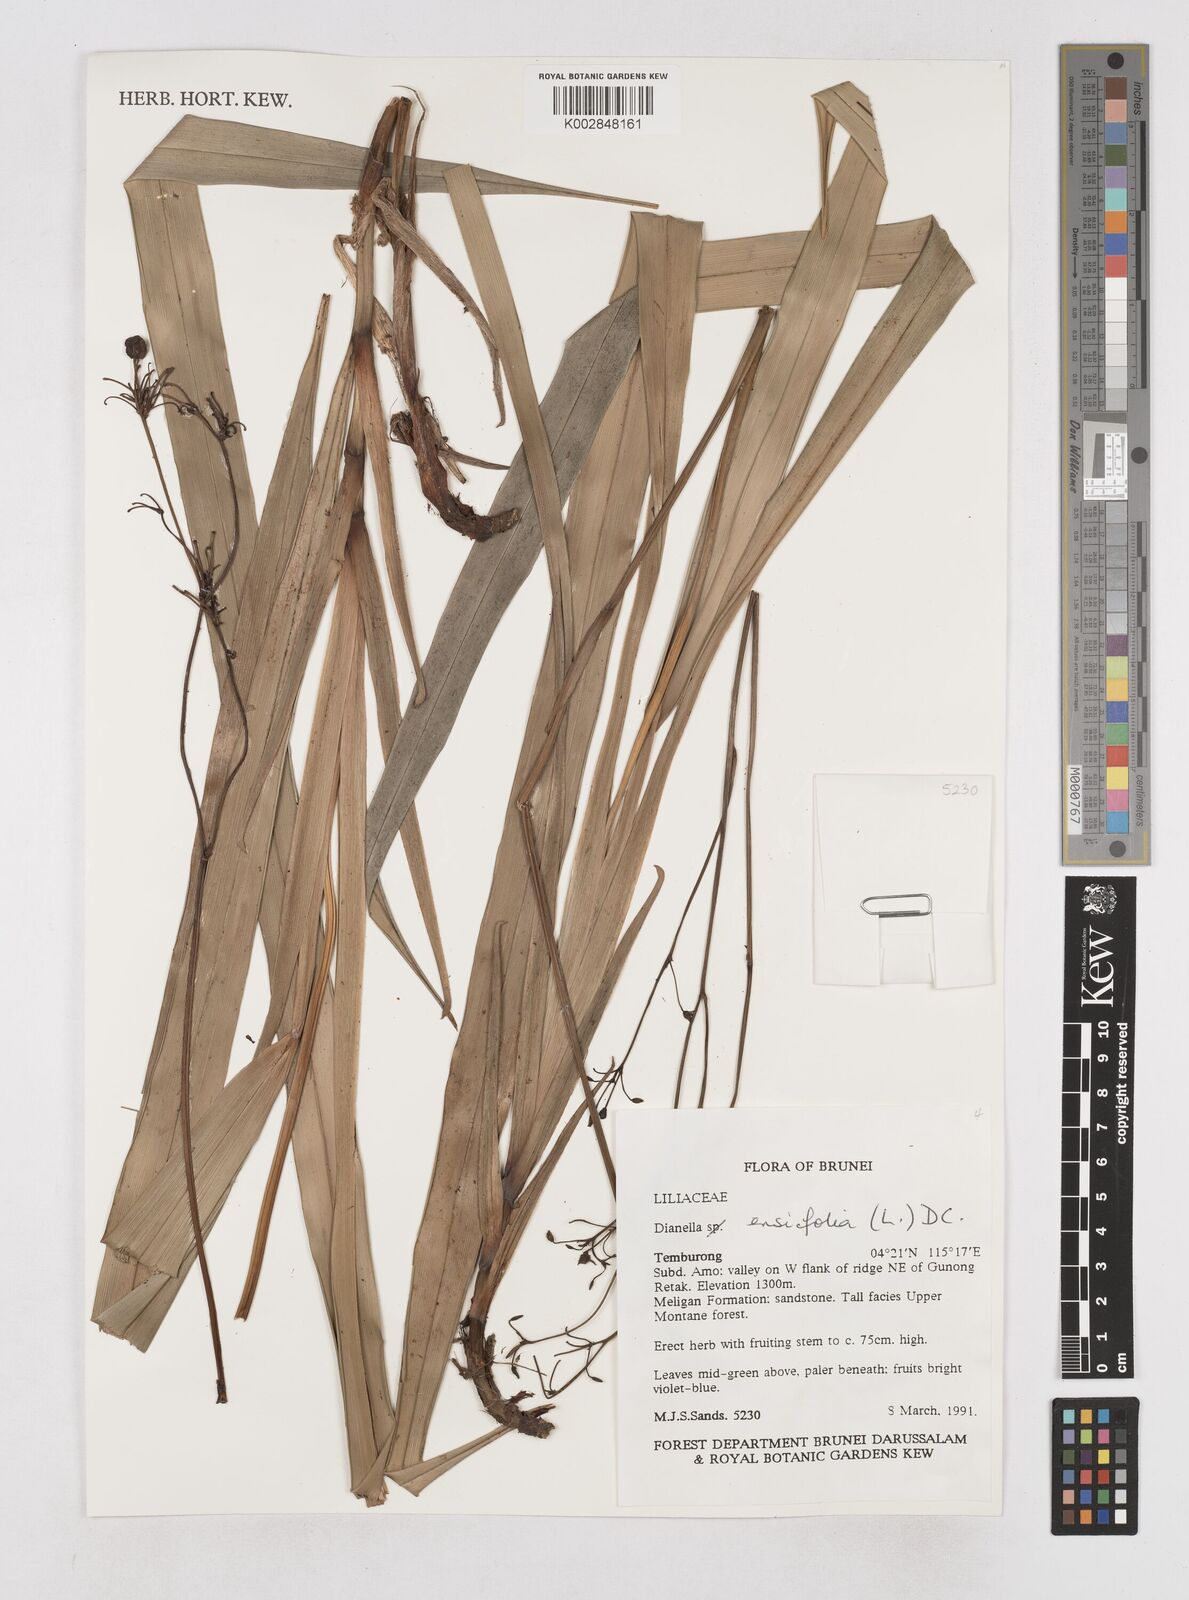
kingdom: Plantae
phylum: Tracheophyta
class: Liliopsida
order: Asparagales
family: Asphodelaceae
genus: Dianella
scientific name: Dianella ensifolia
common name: New zealand lilyplant
